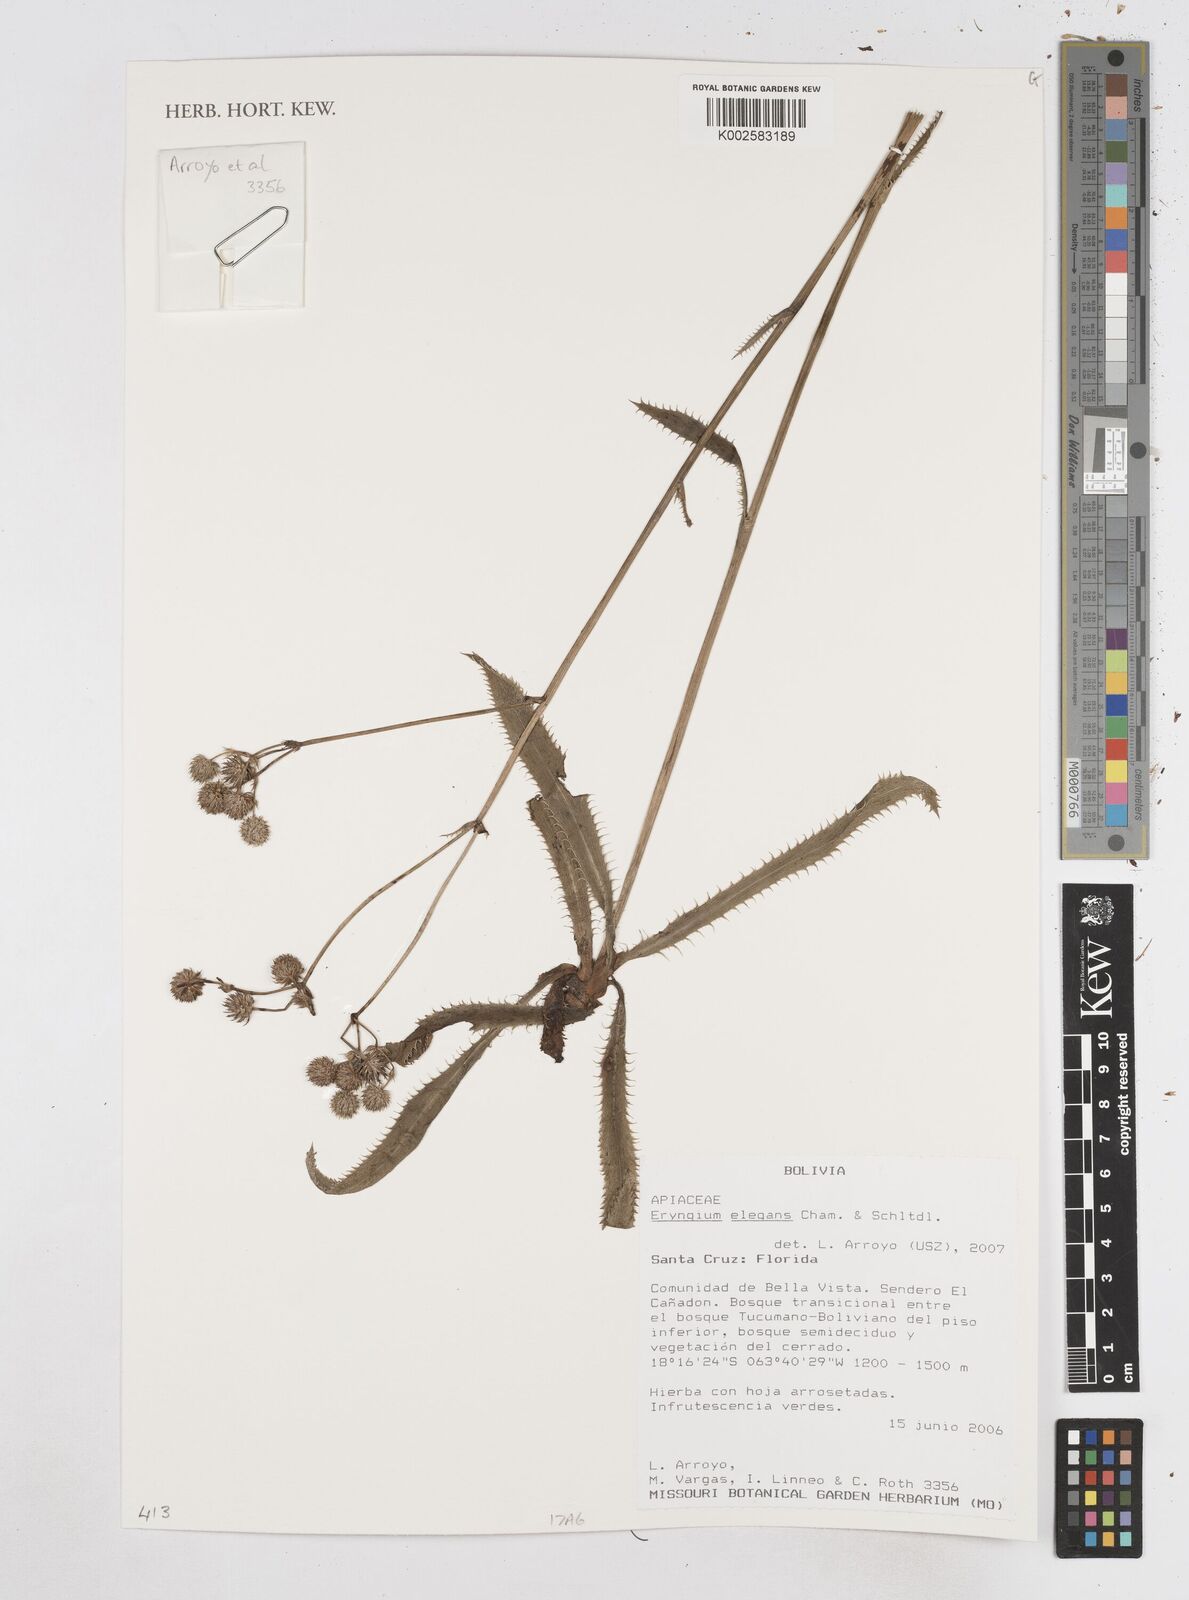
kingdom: Plantae
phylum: Tracheophyta
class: Magnoliopsida
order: Apiales
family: Apiaceae
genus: Eryngium
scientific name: Eryngium elegans
